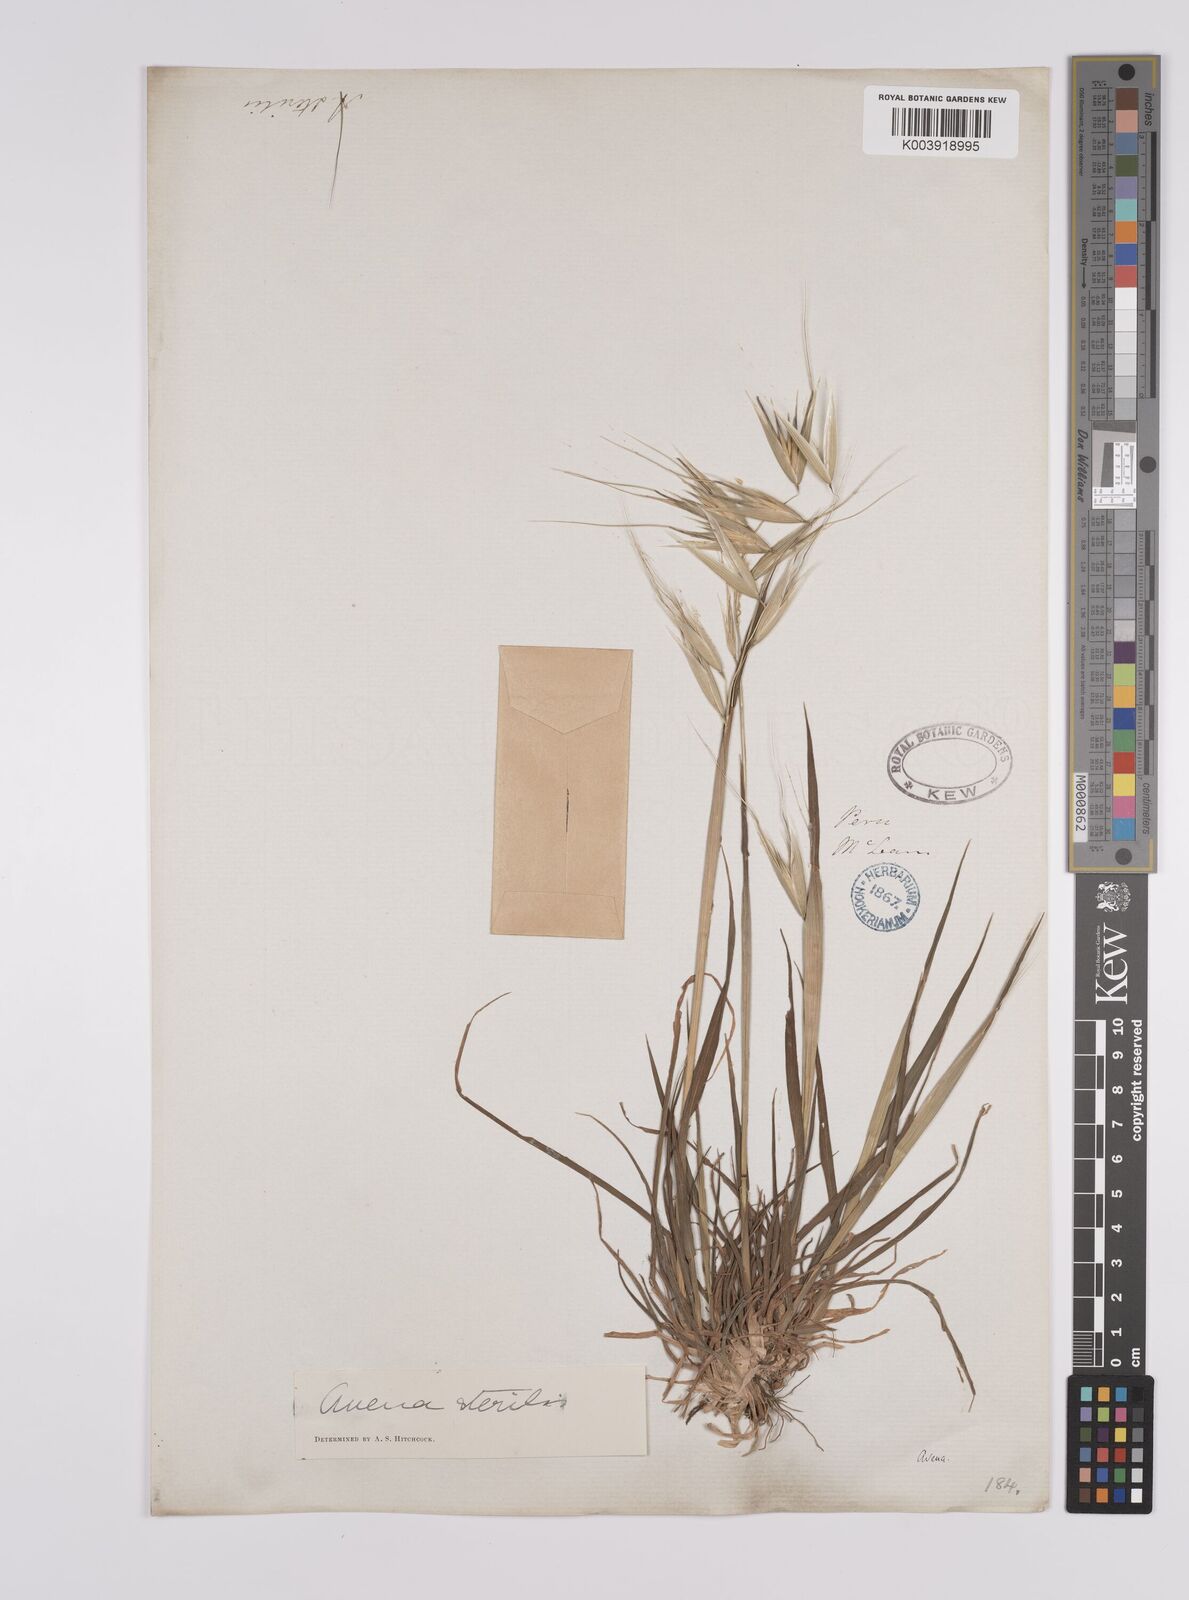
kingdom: Plantae
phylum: Tracheophyta
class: Liliopsida
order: Poales
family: Poaceae
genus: Avena
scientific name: Avena sterilis
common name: Animated oat
